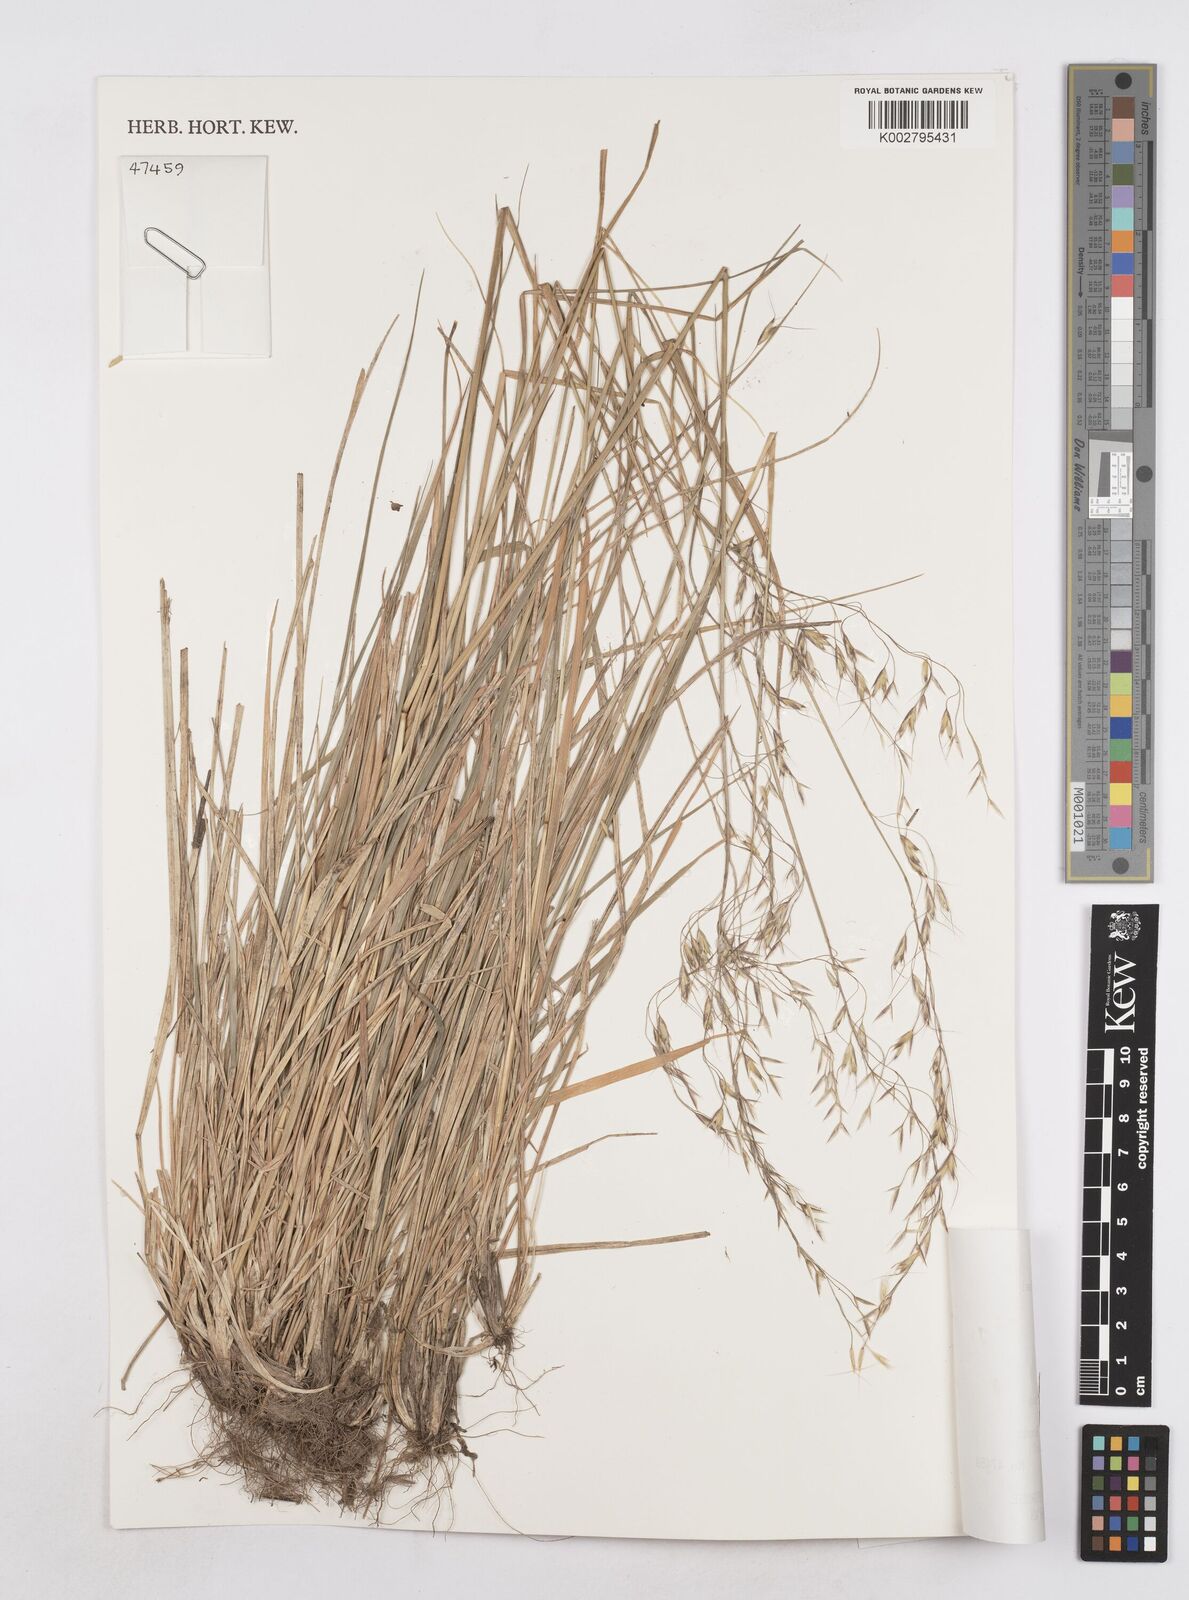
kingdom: Plantae
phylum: Tracheophyta
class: Liliopsida
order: Poales
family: Poaceae
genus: Helictotrichon
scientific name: Helictotrichon hideoi
